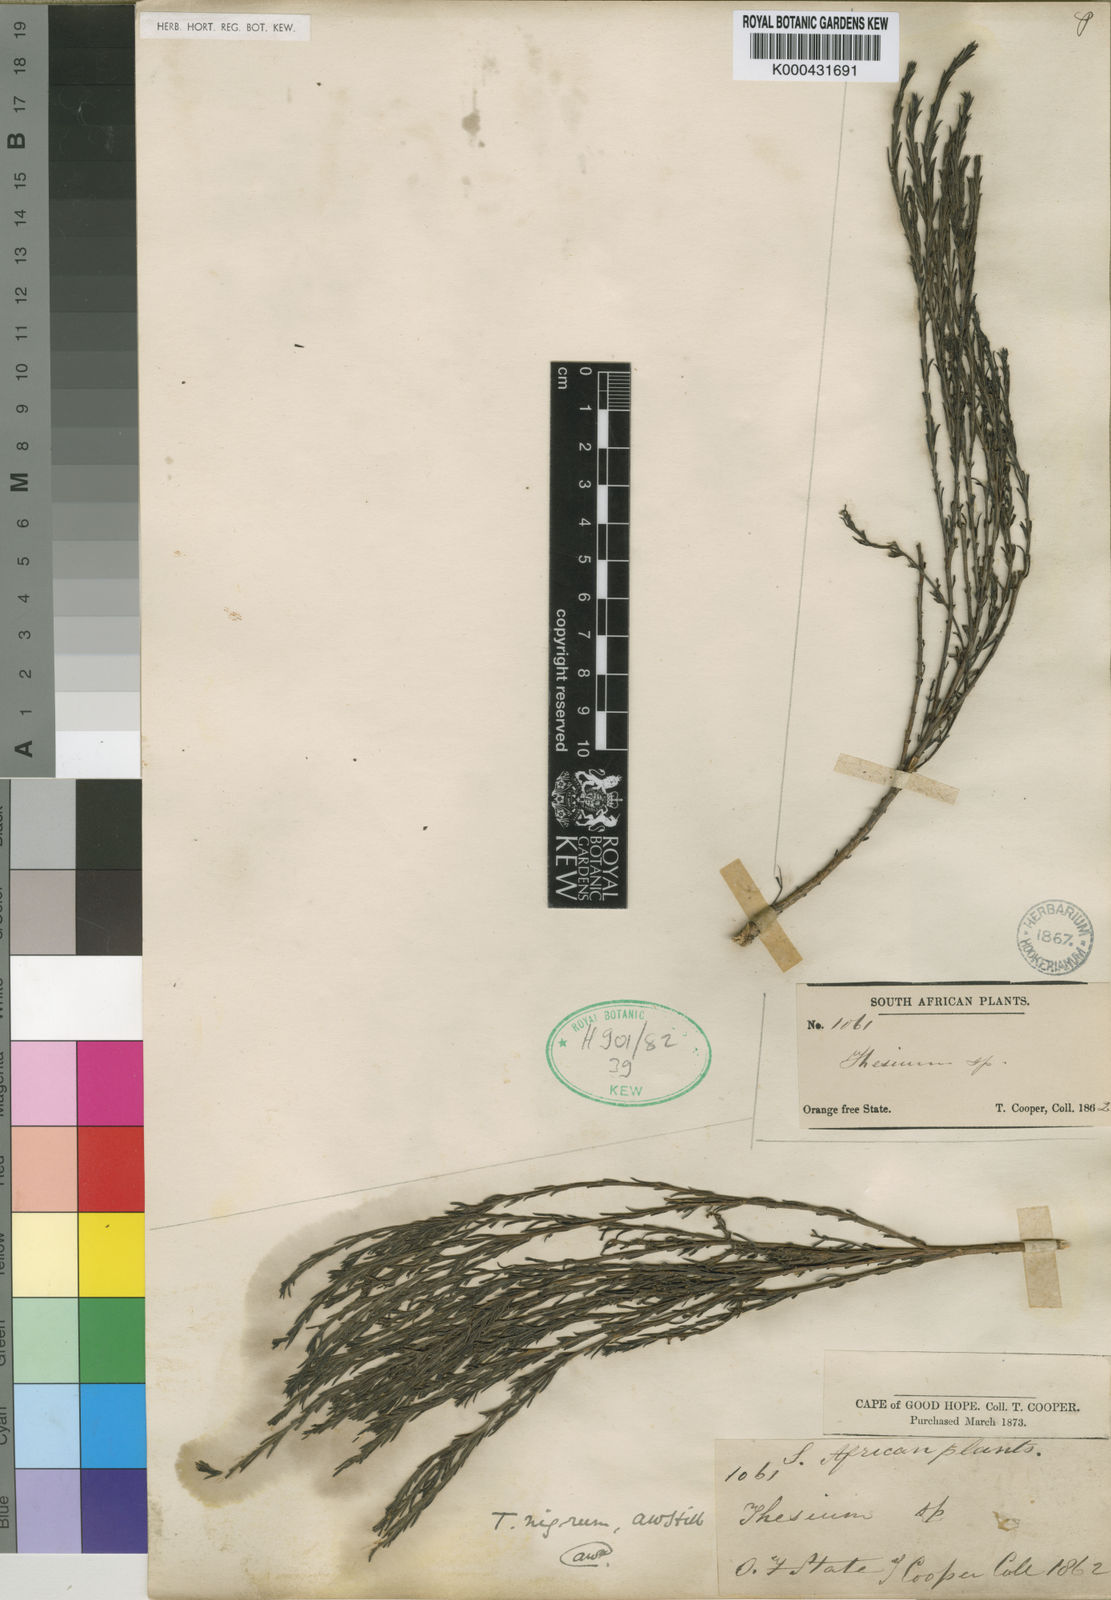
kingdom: Plantae
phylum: Tracheophyta
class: Magnoliopsida
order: Santalales
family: Thesiaceae
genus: Thesium
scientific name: Thesium nigrum
